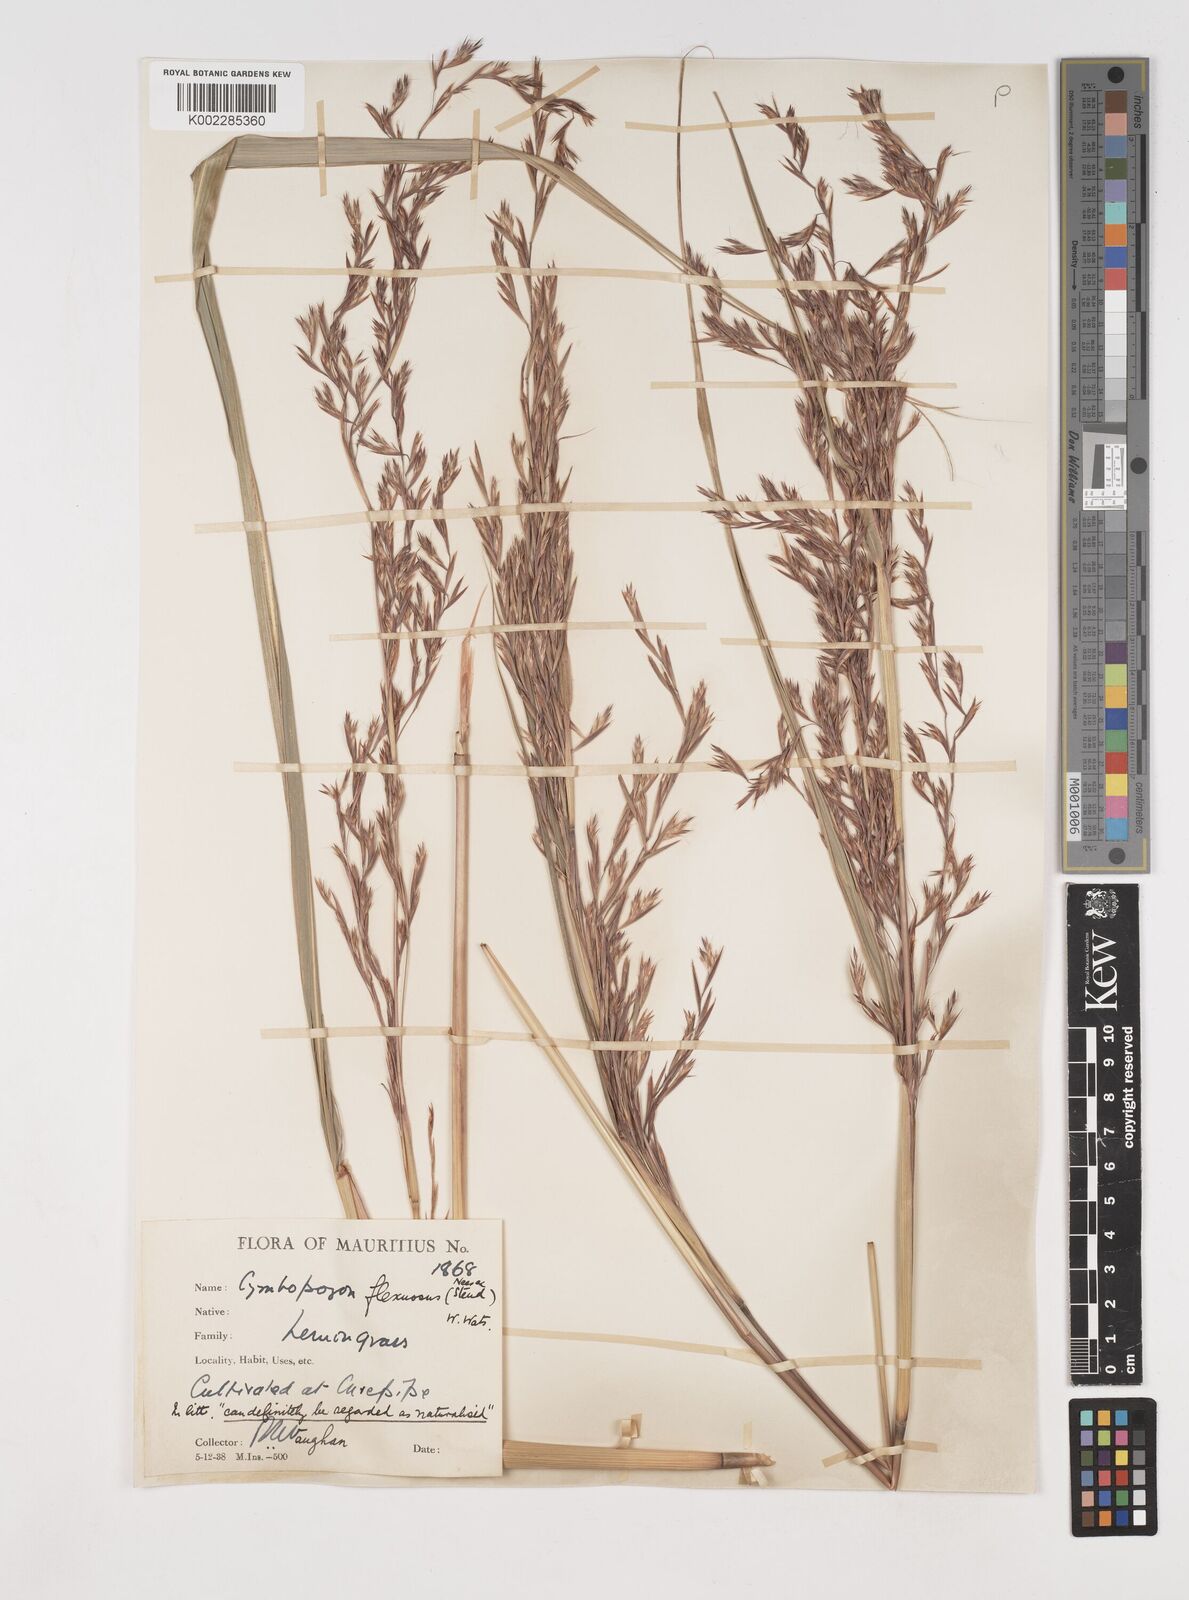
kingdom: Plantae
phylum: Tracheophyta
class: Liliopsida
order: Poales
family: Poaceae
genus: Cymbopogon
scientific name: Cymbopogon flexuosus
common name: East indian lemongrass
